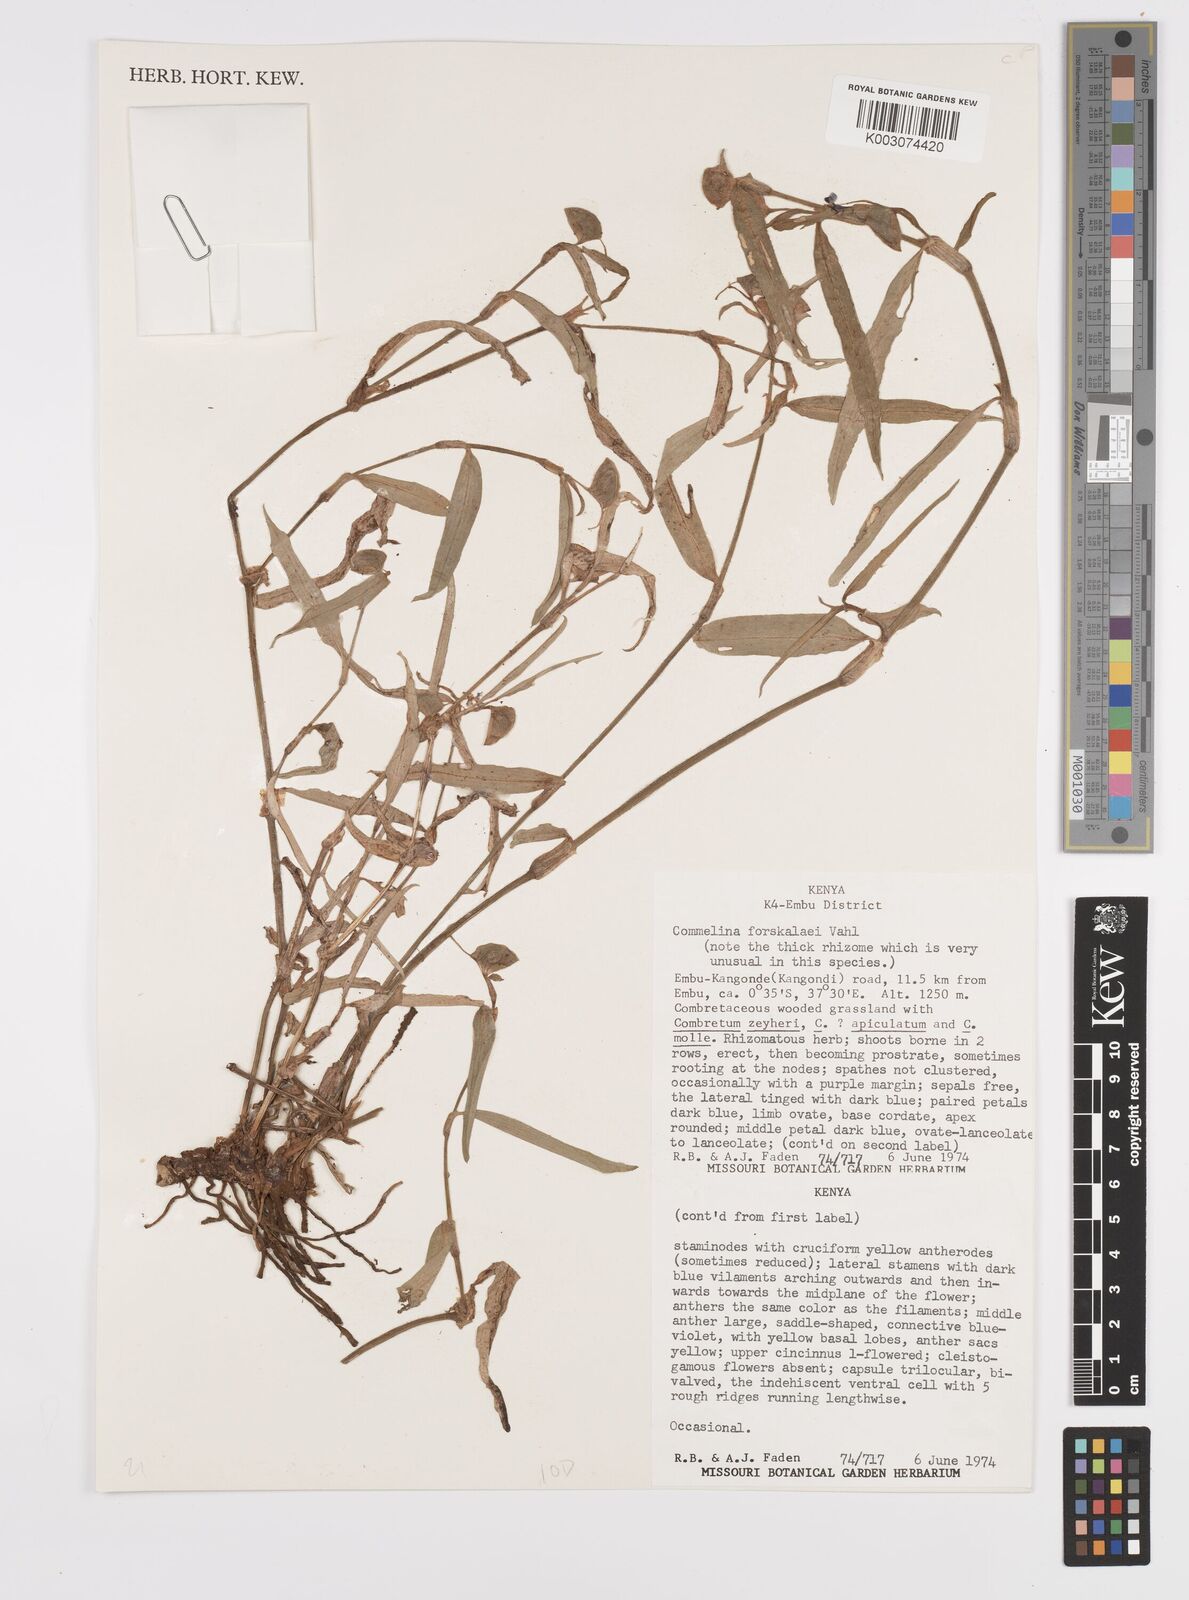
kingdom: Plantae
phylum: Tracheophyta
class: Liliopsida
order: Commelinales
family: Commelinaceae
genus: Commelina
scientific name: Commelina forskaolii
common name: Rat's ear
